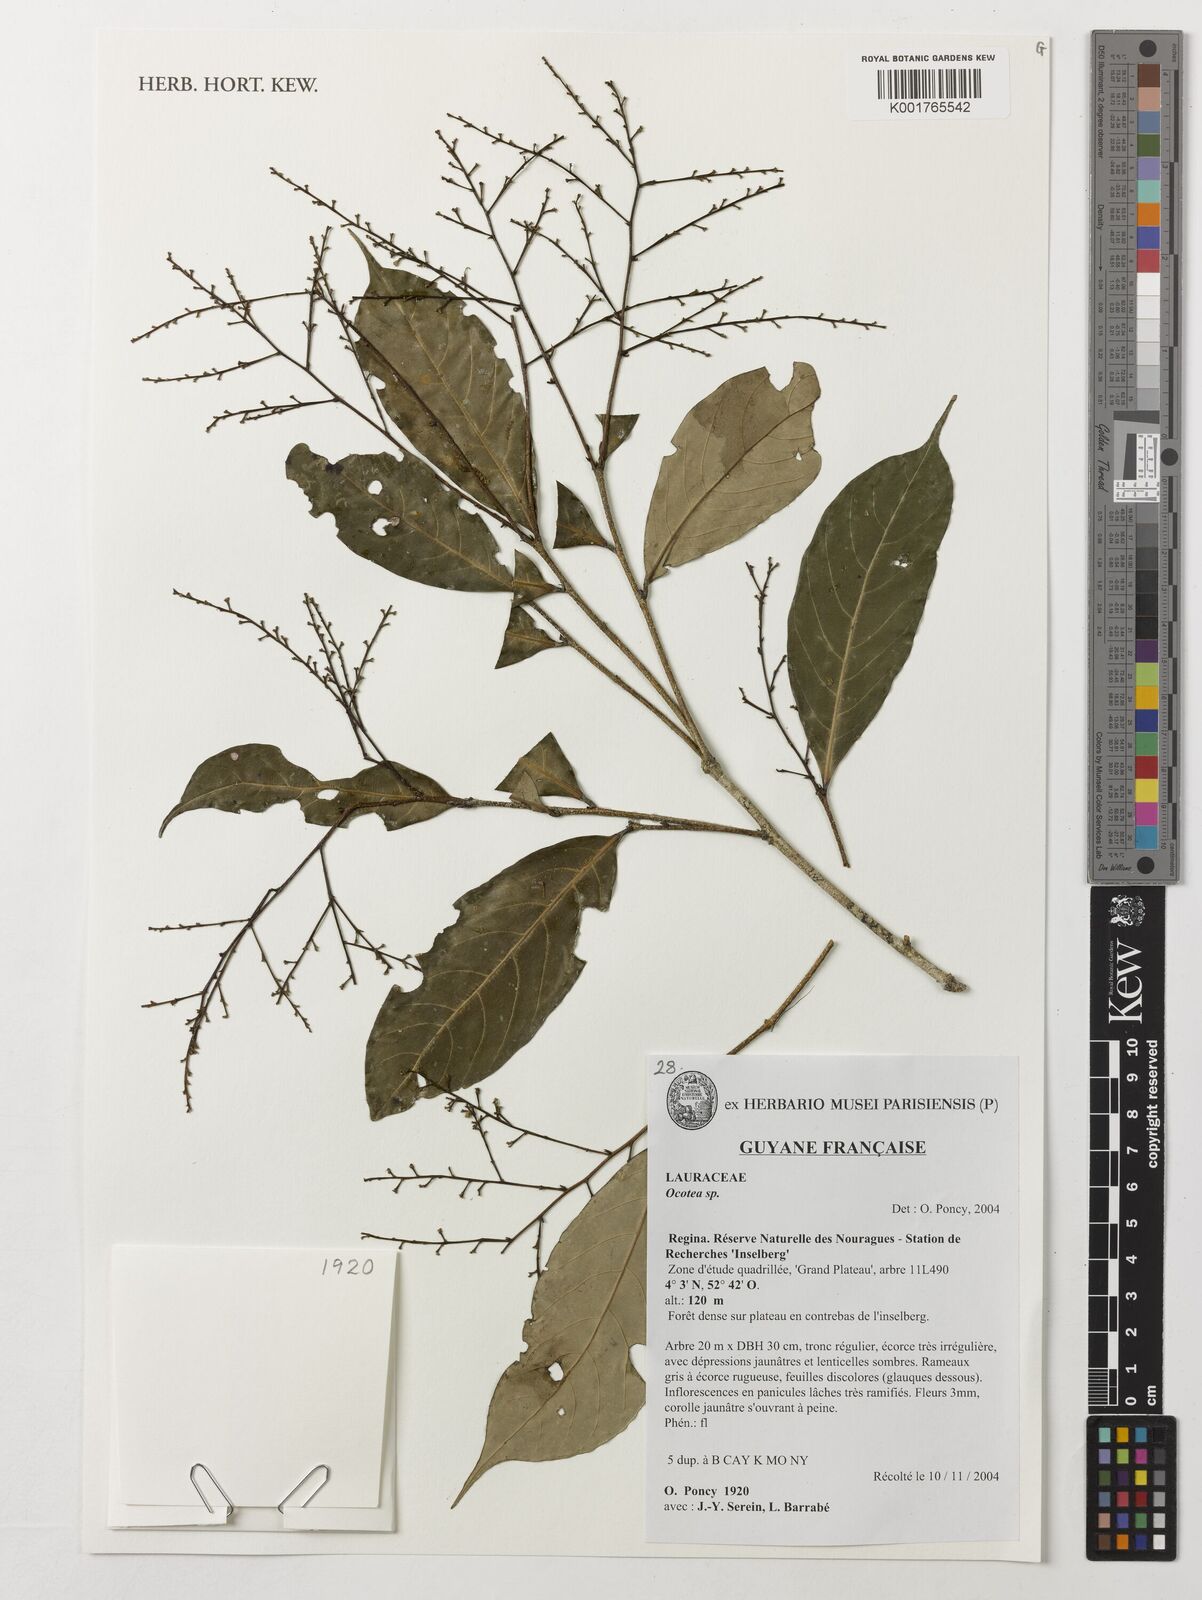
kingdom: Plantae
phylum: Tracheophyta
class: Magnoliopsida
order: Laurales
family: Lauraceae
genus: Ocotea
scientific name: Ocotea
